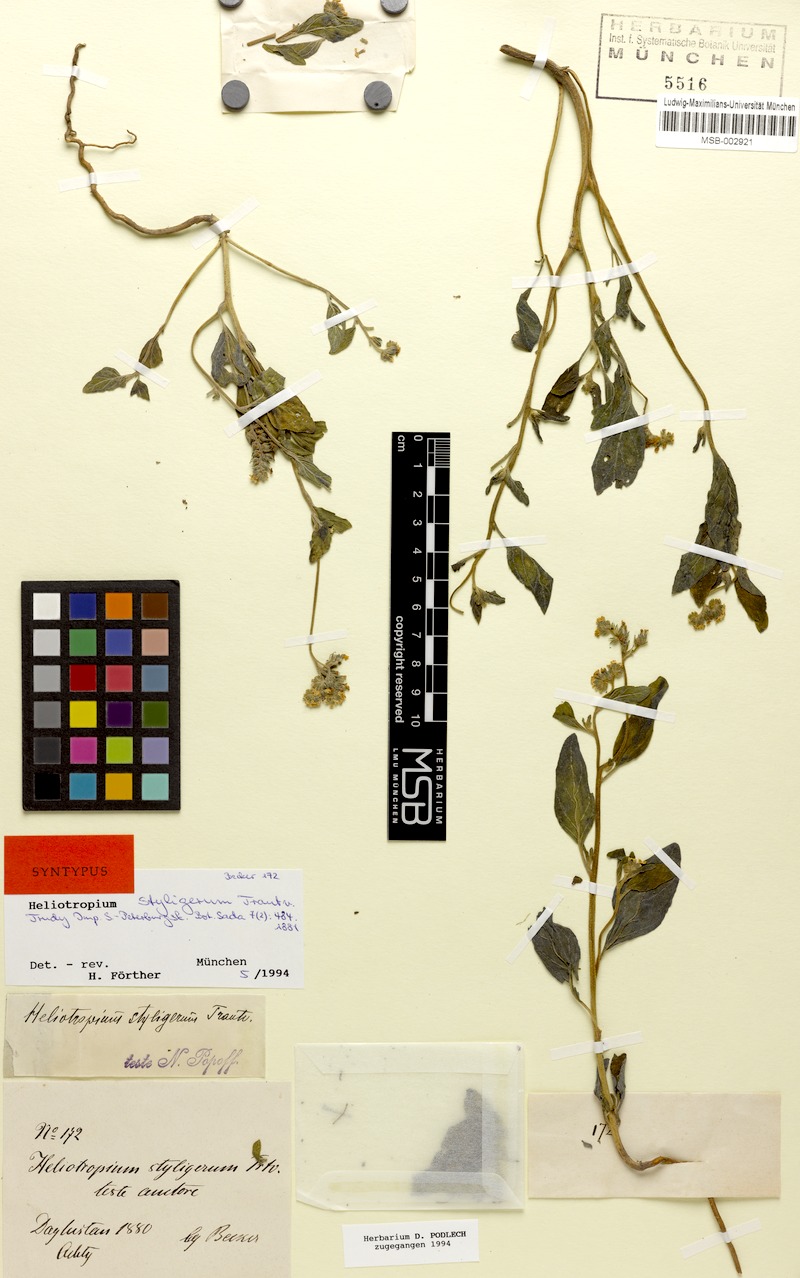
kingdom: Plantae
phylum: Tracheophyta
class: Magnoliopsida
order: Boraginales
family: Heliotropiaceae
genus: Heliotropium
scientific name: Heliotropium styligerum
